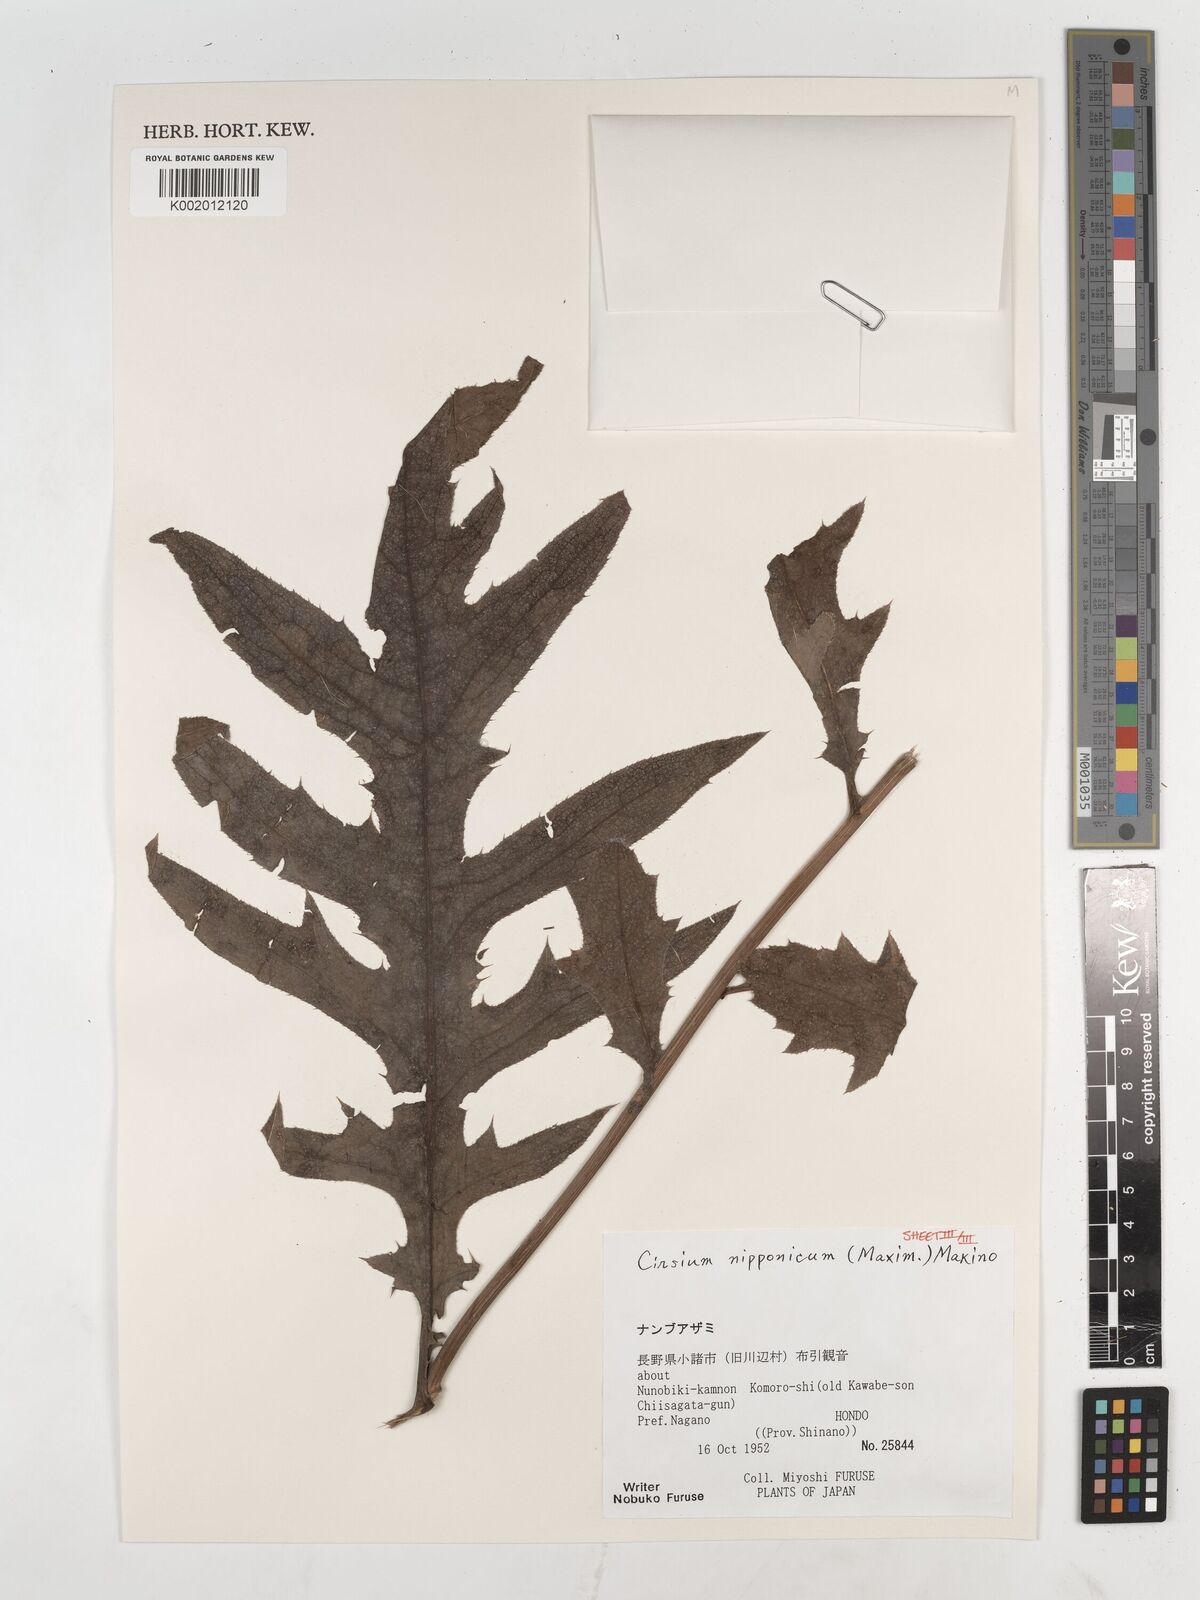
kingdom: Plantae
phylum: Tracheophyta
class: Magnoliopsida
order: Asterales
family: Asteraceae
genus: Cirsium
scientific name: Cirsium nipponicum
